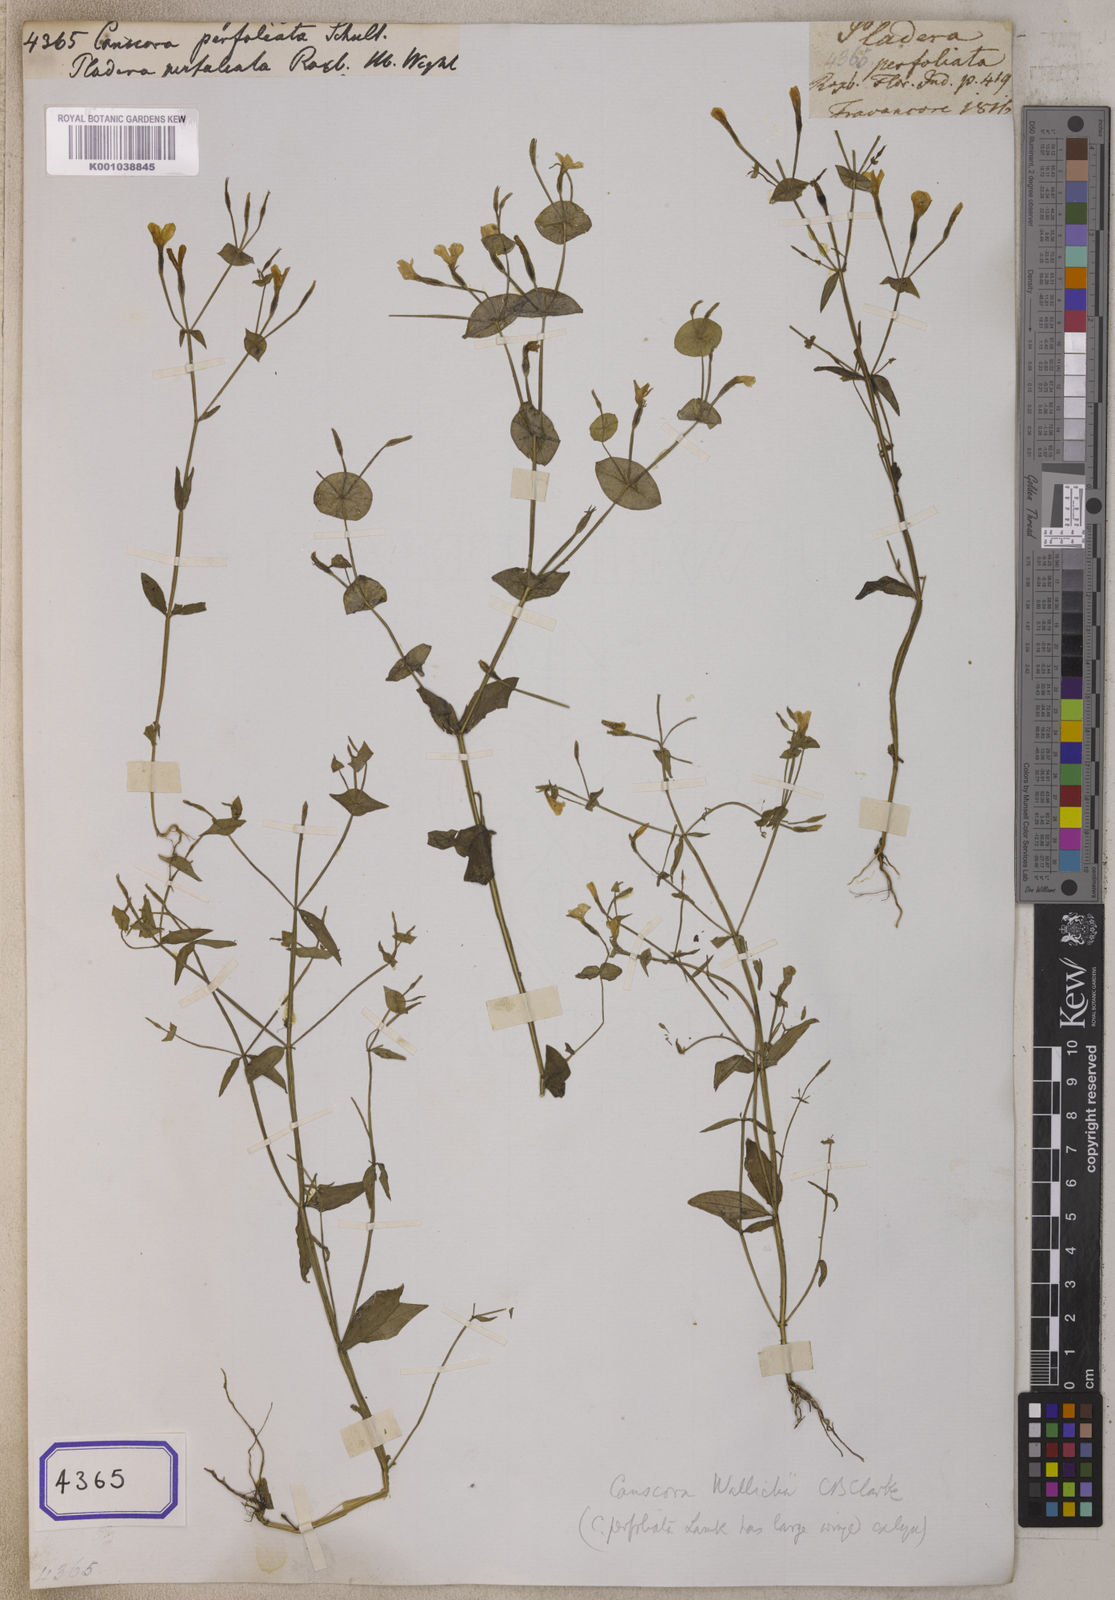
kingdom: Plantae
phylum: Tracheophyta
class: Magnoliopsida
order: Gentianales
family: Gentianaceae
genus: Canscora
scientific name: Canscora
